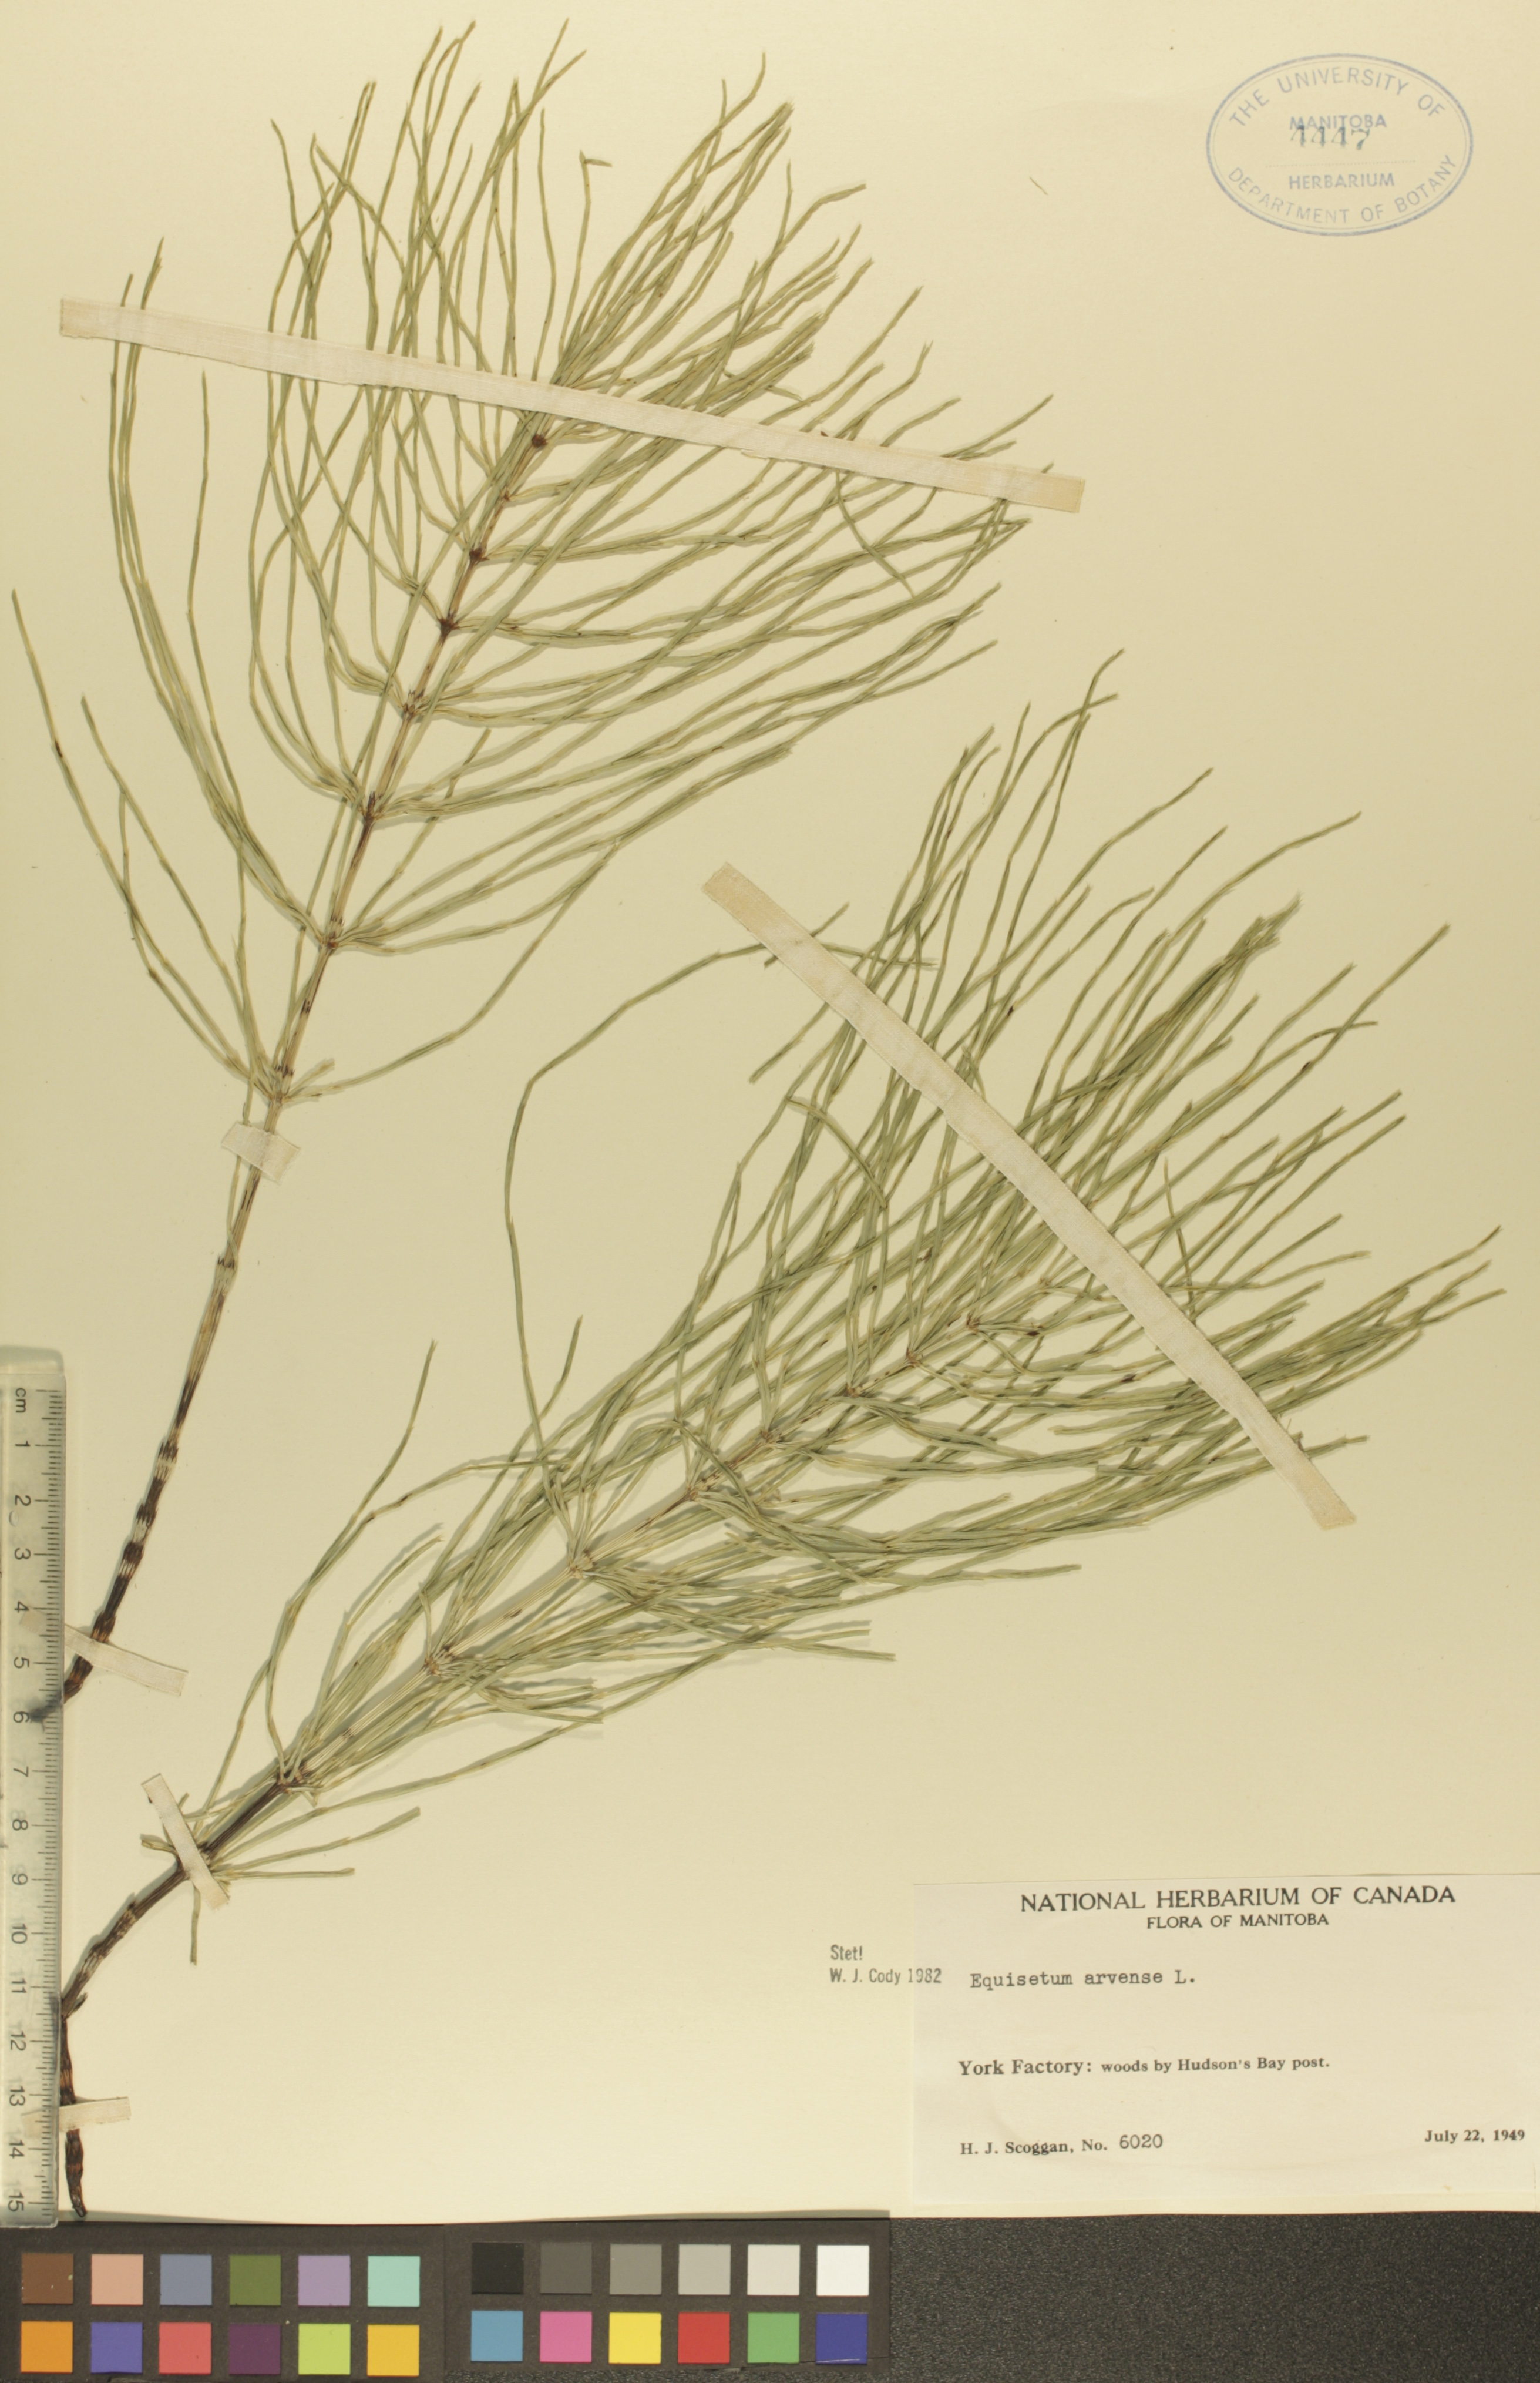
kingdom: Plantae
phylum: Tracheophyta
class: Polypodiopsida
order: Equisetales
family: Equisetaceae
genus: Equisetum
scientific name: Equisetum arvense
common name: Field horsetail
